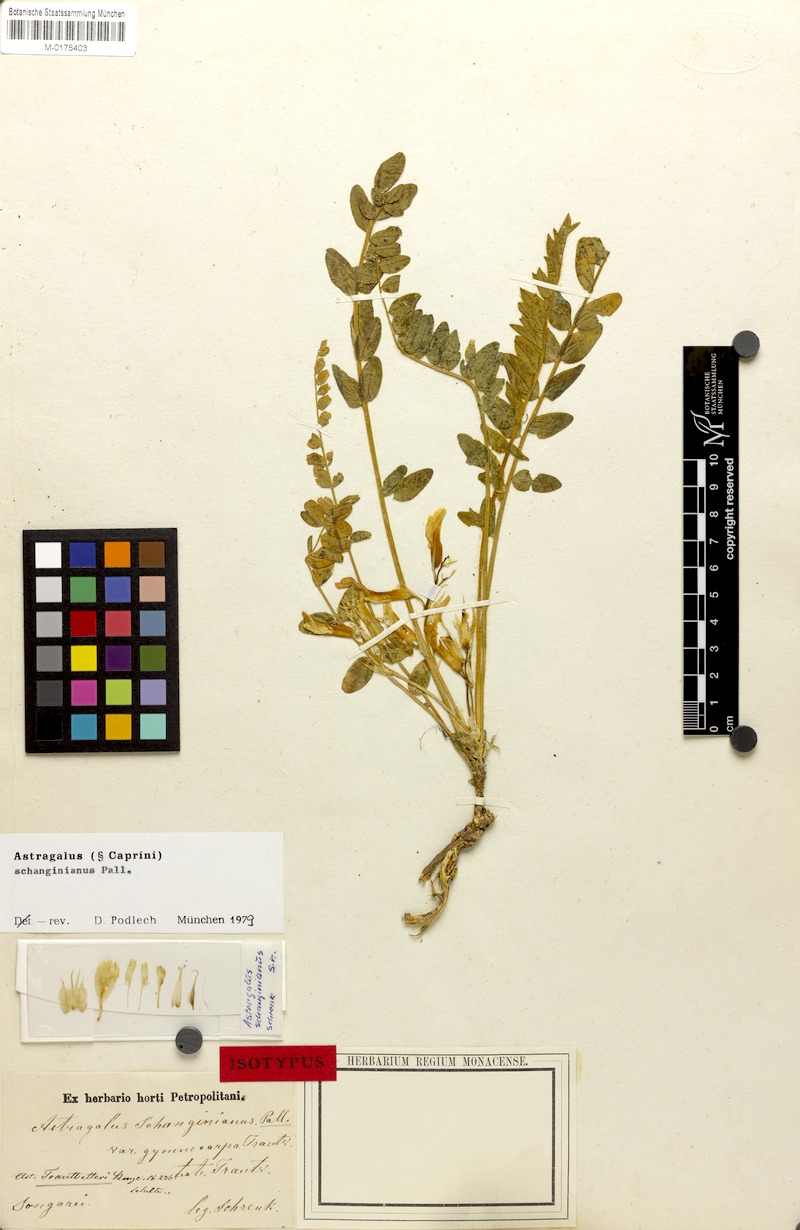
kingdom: Plantae
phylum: Tracheophyta
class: Magnoliopsida
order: Fabales
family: Fabaceae
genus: Astragalus
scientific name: Astragalus schanginianus
